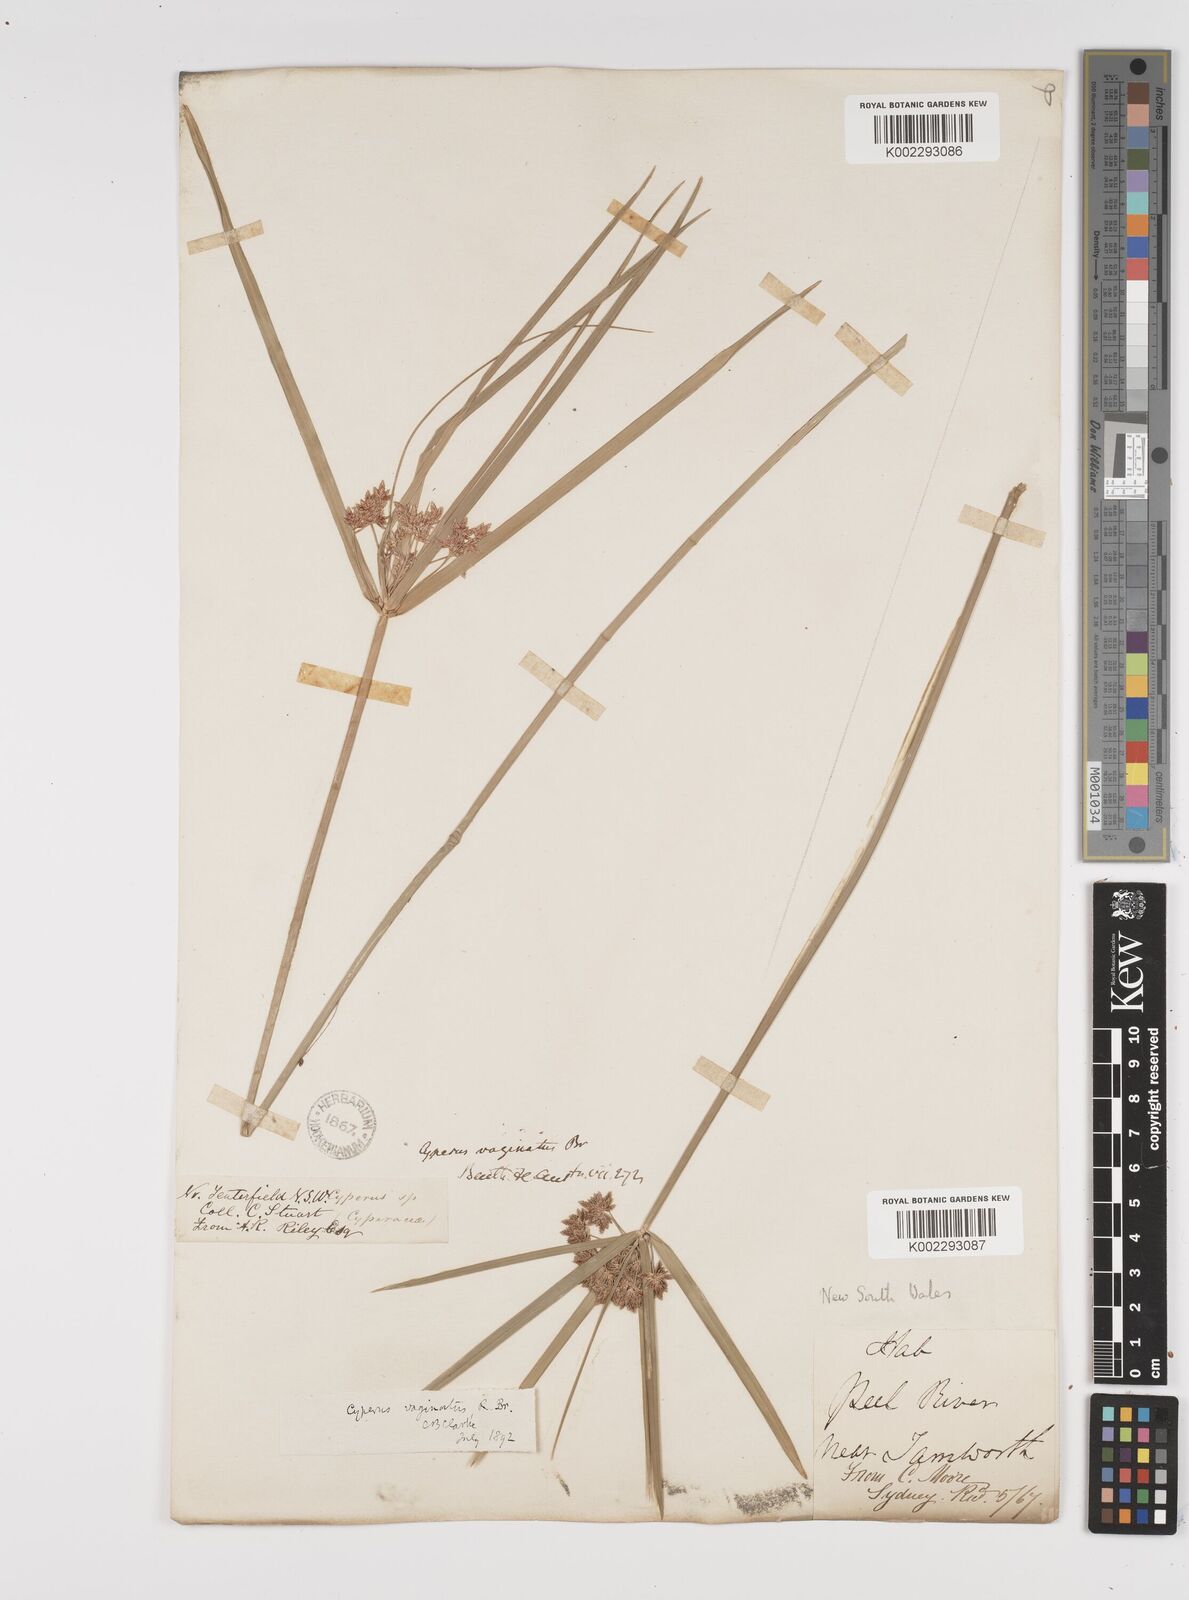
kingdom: Plantae
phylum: Tracheophyta
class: Liliopsida
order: Poales
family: Cyperaceae
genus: Cyperus
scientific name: Cyperus vaginatus
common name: Stiff-leaved flat-sedge
